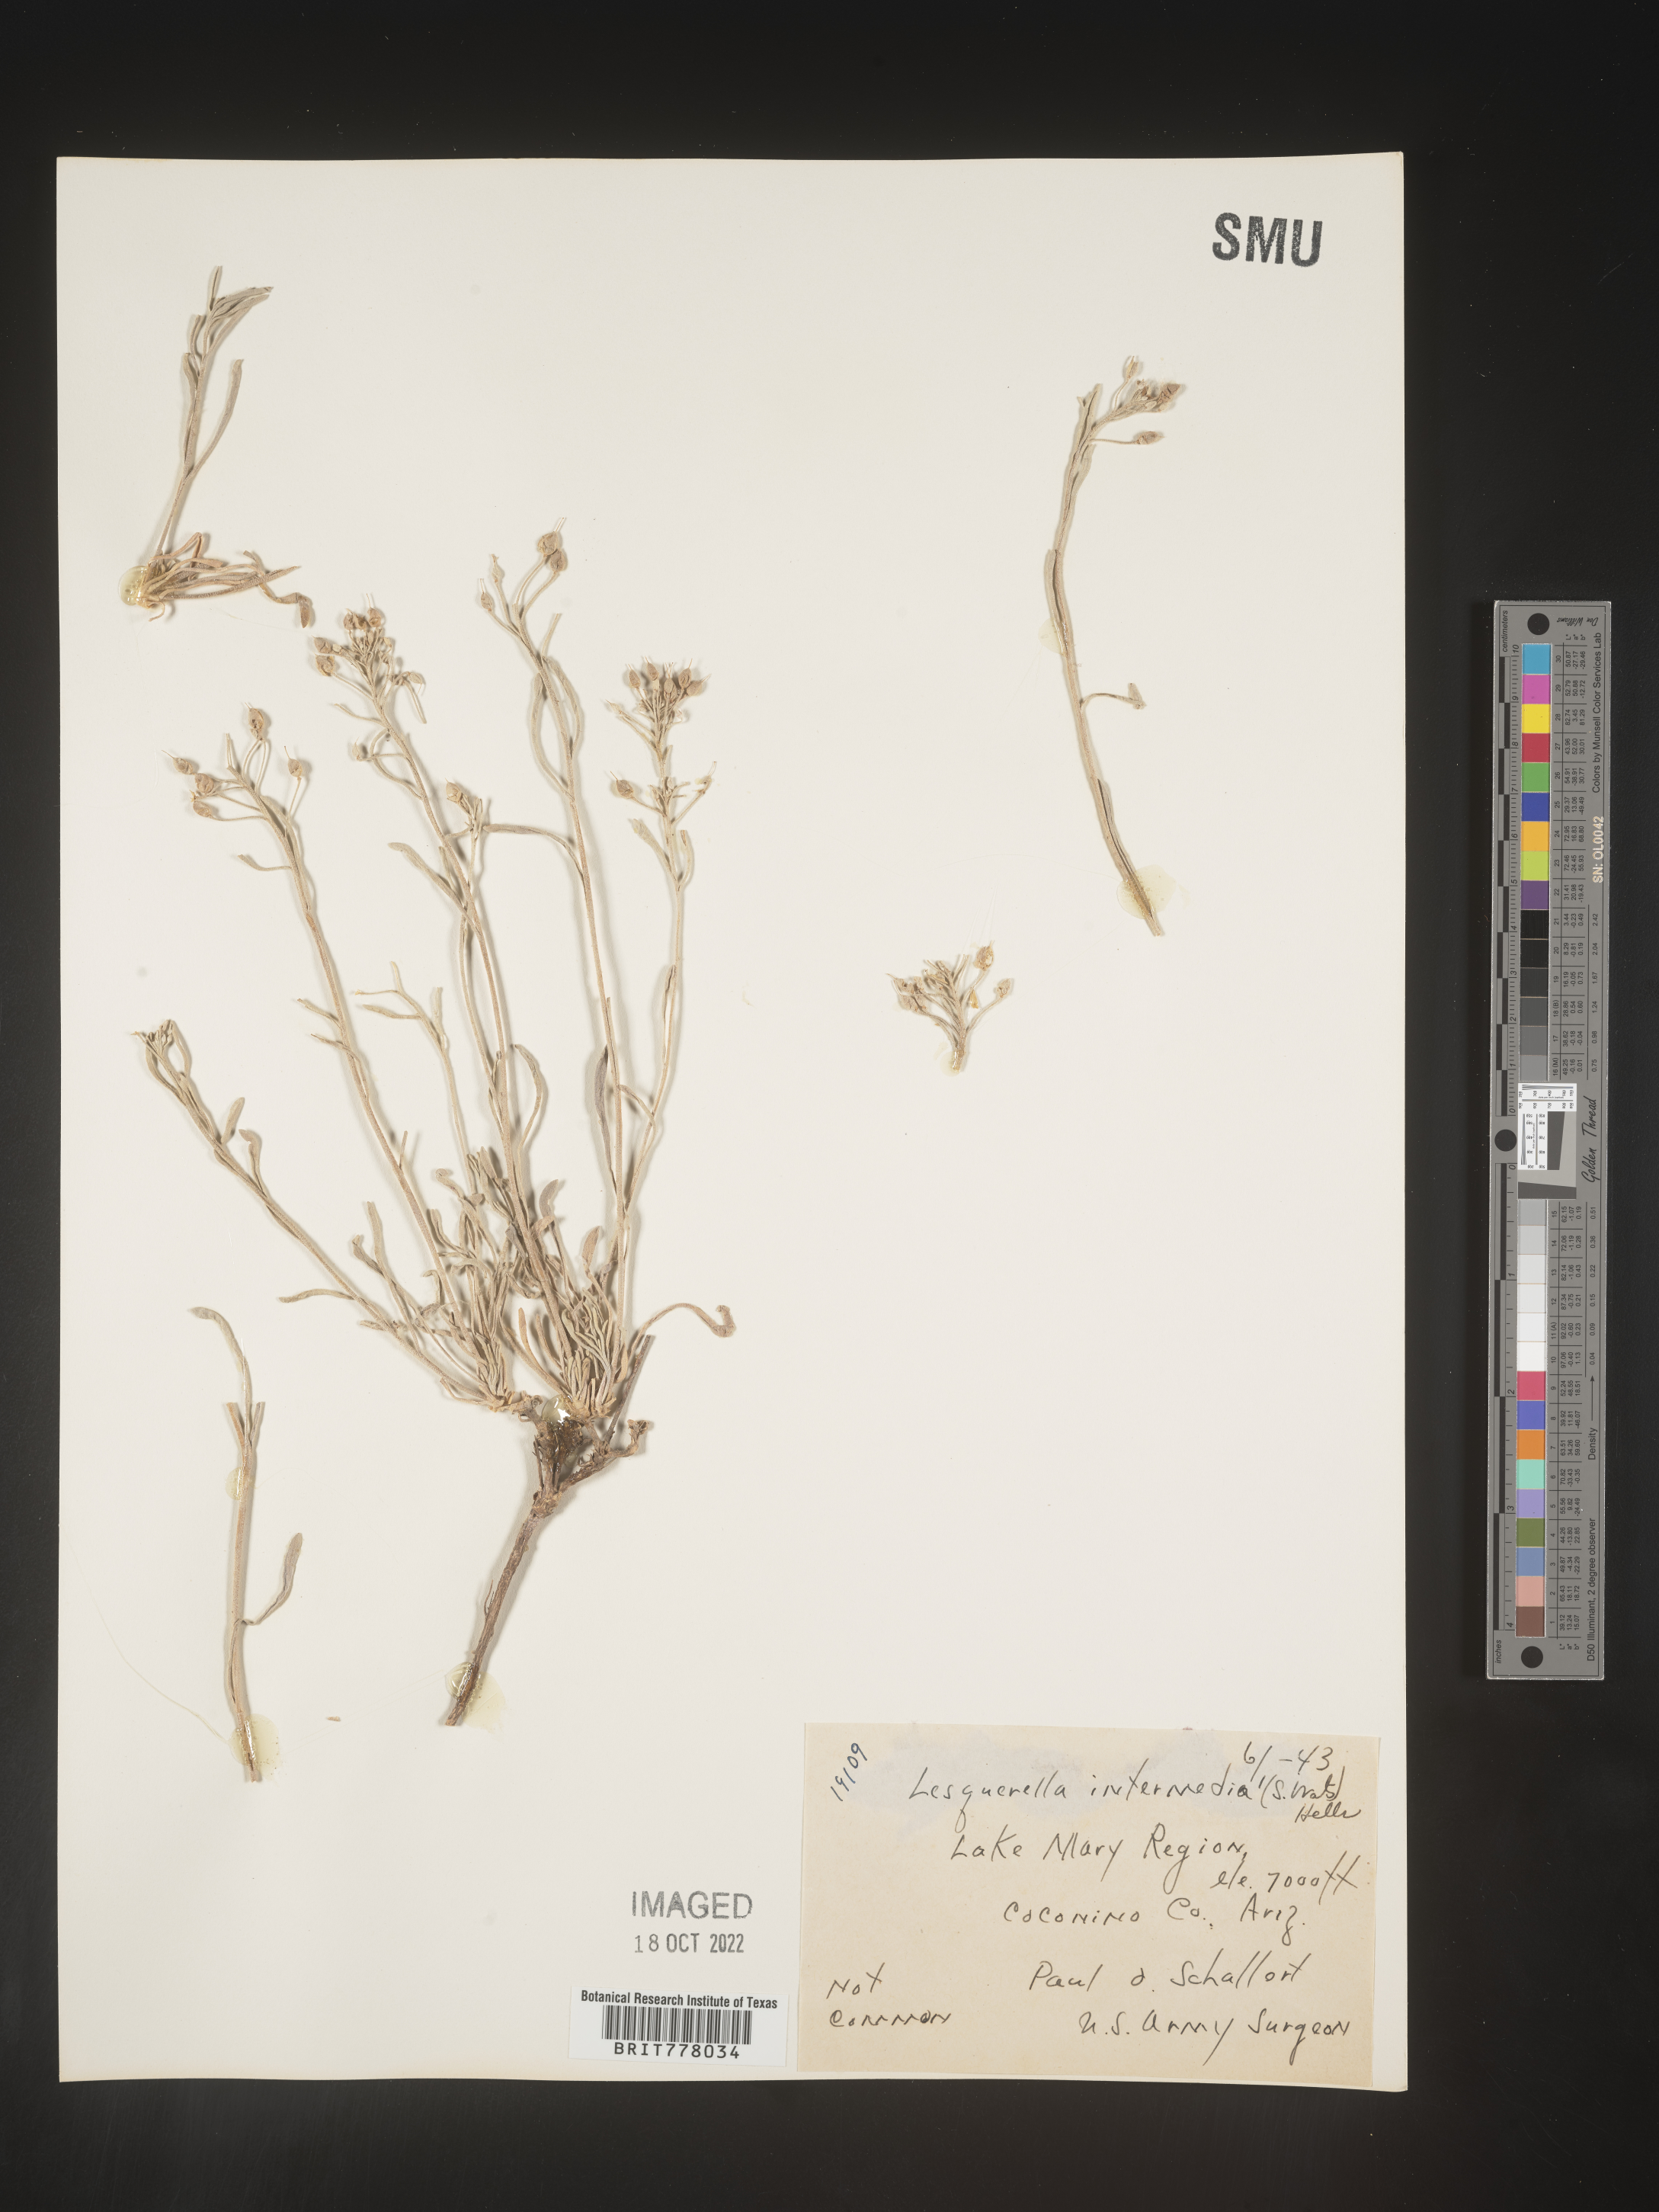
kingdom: Chromista
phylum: Cercozoa
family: Psammonobiotidae
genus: Lesquerella
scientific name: Lesquerella
